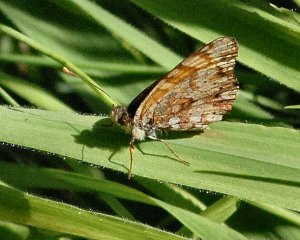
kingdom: Animalia
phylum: Arthropoda
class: Insecta
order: Lepidoptera
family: Nymphalidae
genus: Eresia
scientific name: Eresia aveyrona
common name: Mylitta Crescent
